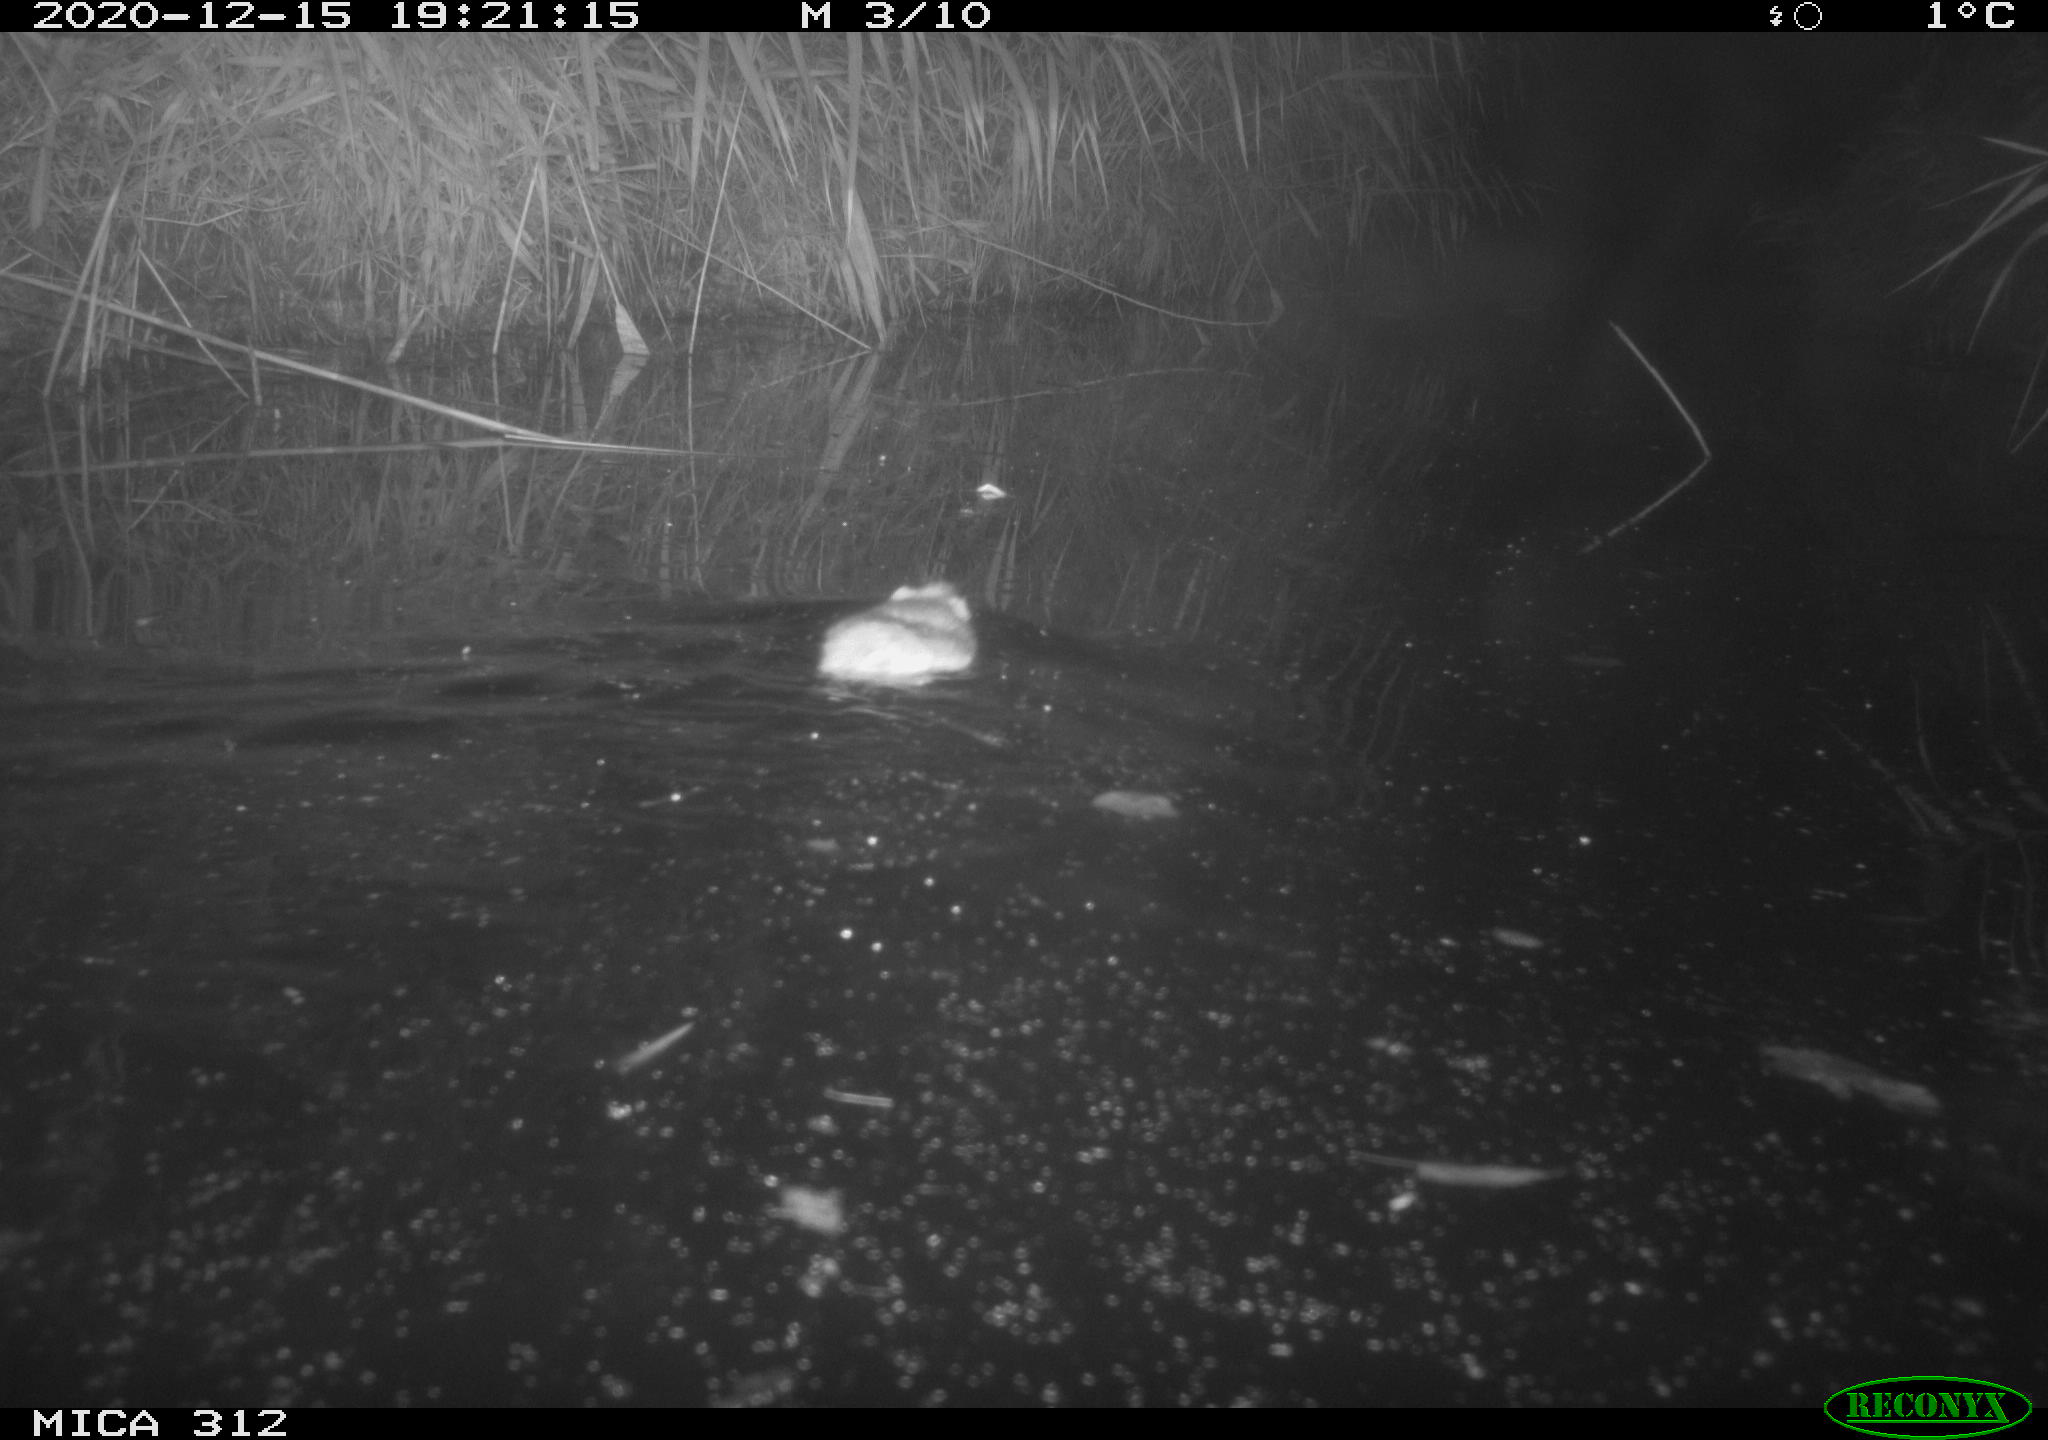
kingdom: Animalia
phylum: Chordata
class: Mammalia
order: Rodentia
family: Muridae
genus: Rattus
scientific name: Rattus norvegicus
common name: Brown rat
